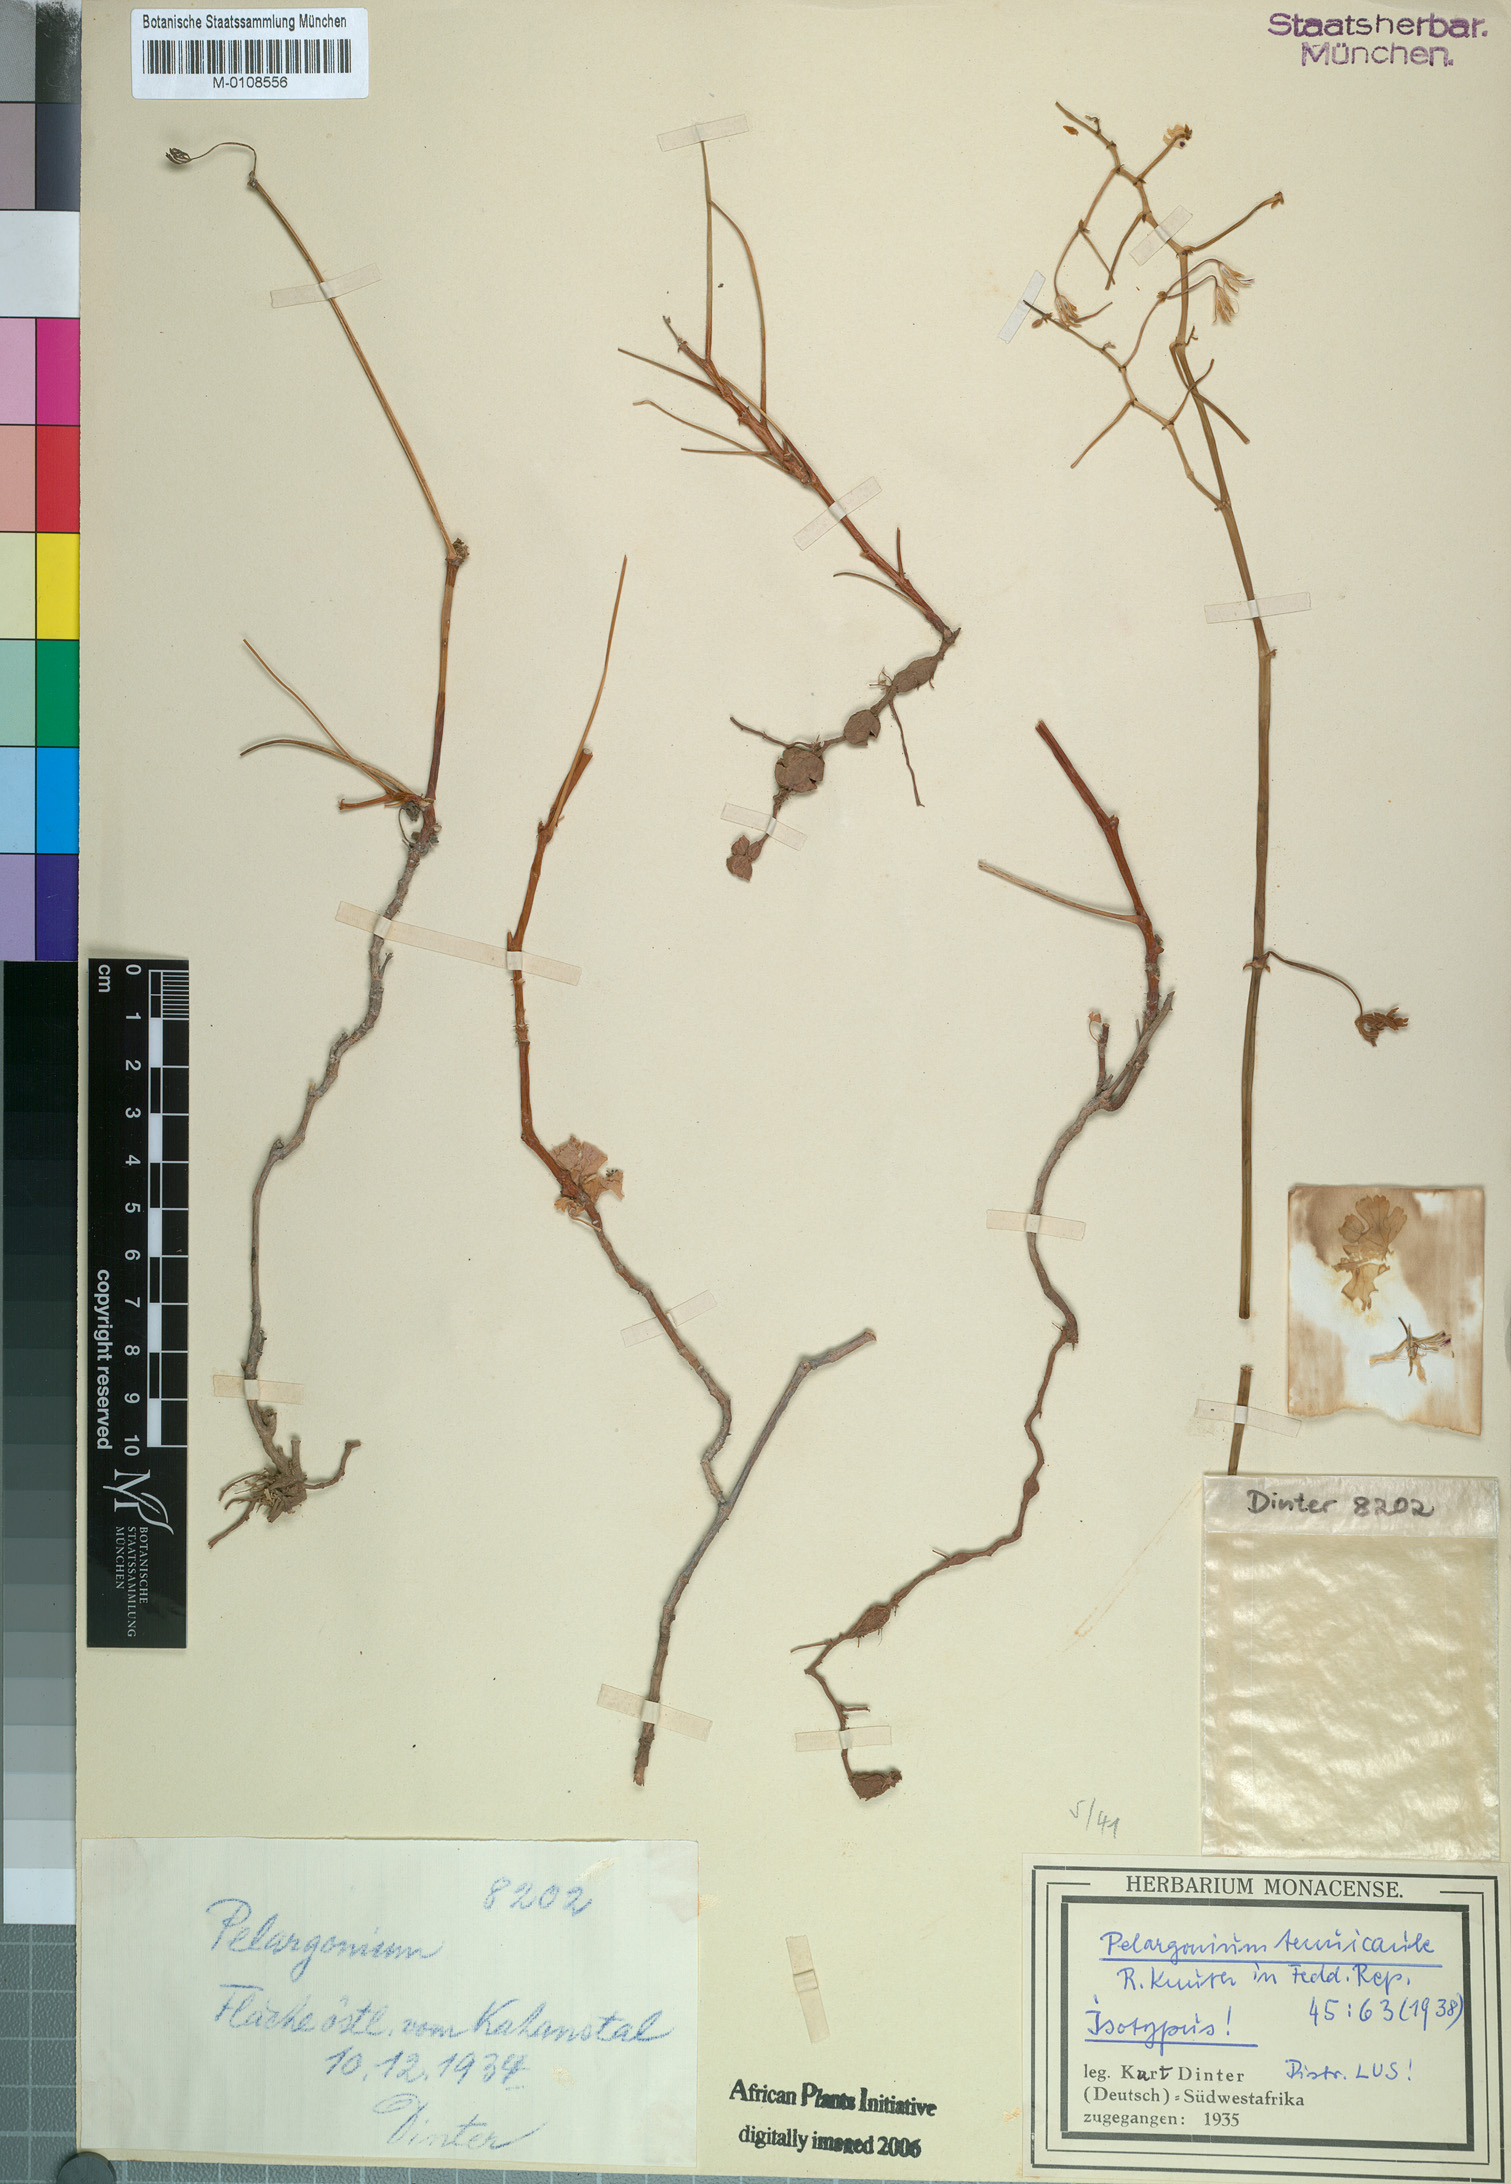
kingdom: Plantae
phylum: Tracheophyta
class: Magnoliopsida
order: Geraniales
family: Geraniaceae
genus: Pelargonium
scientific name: Pelargonium tenuicaule
